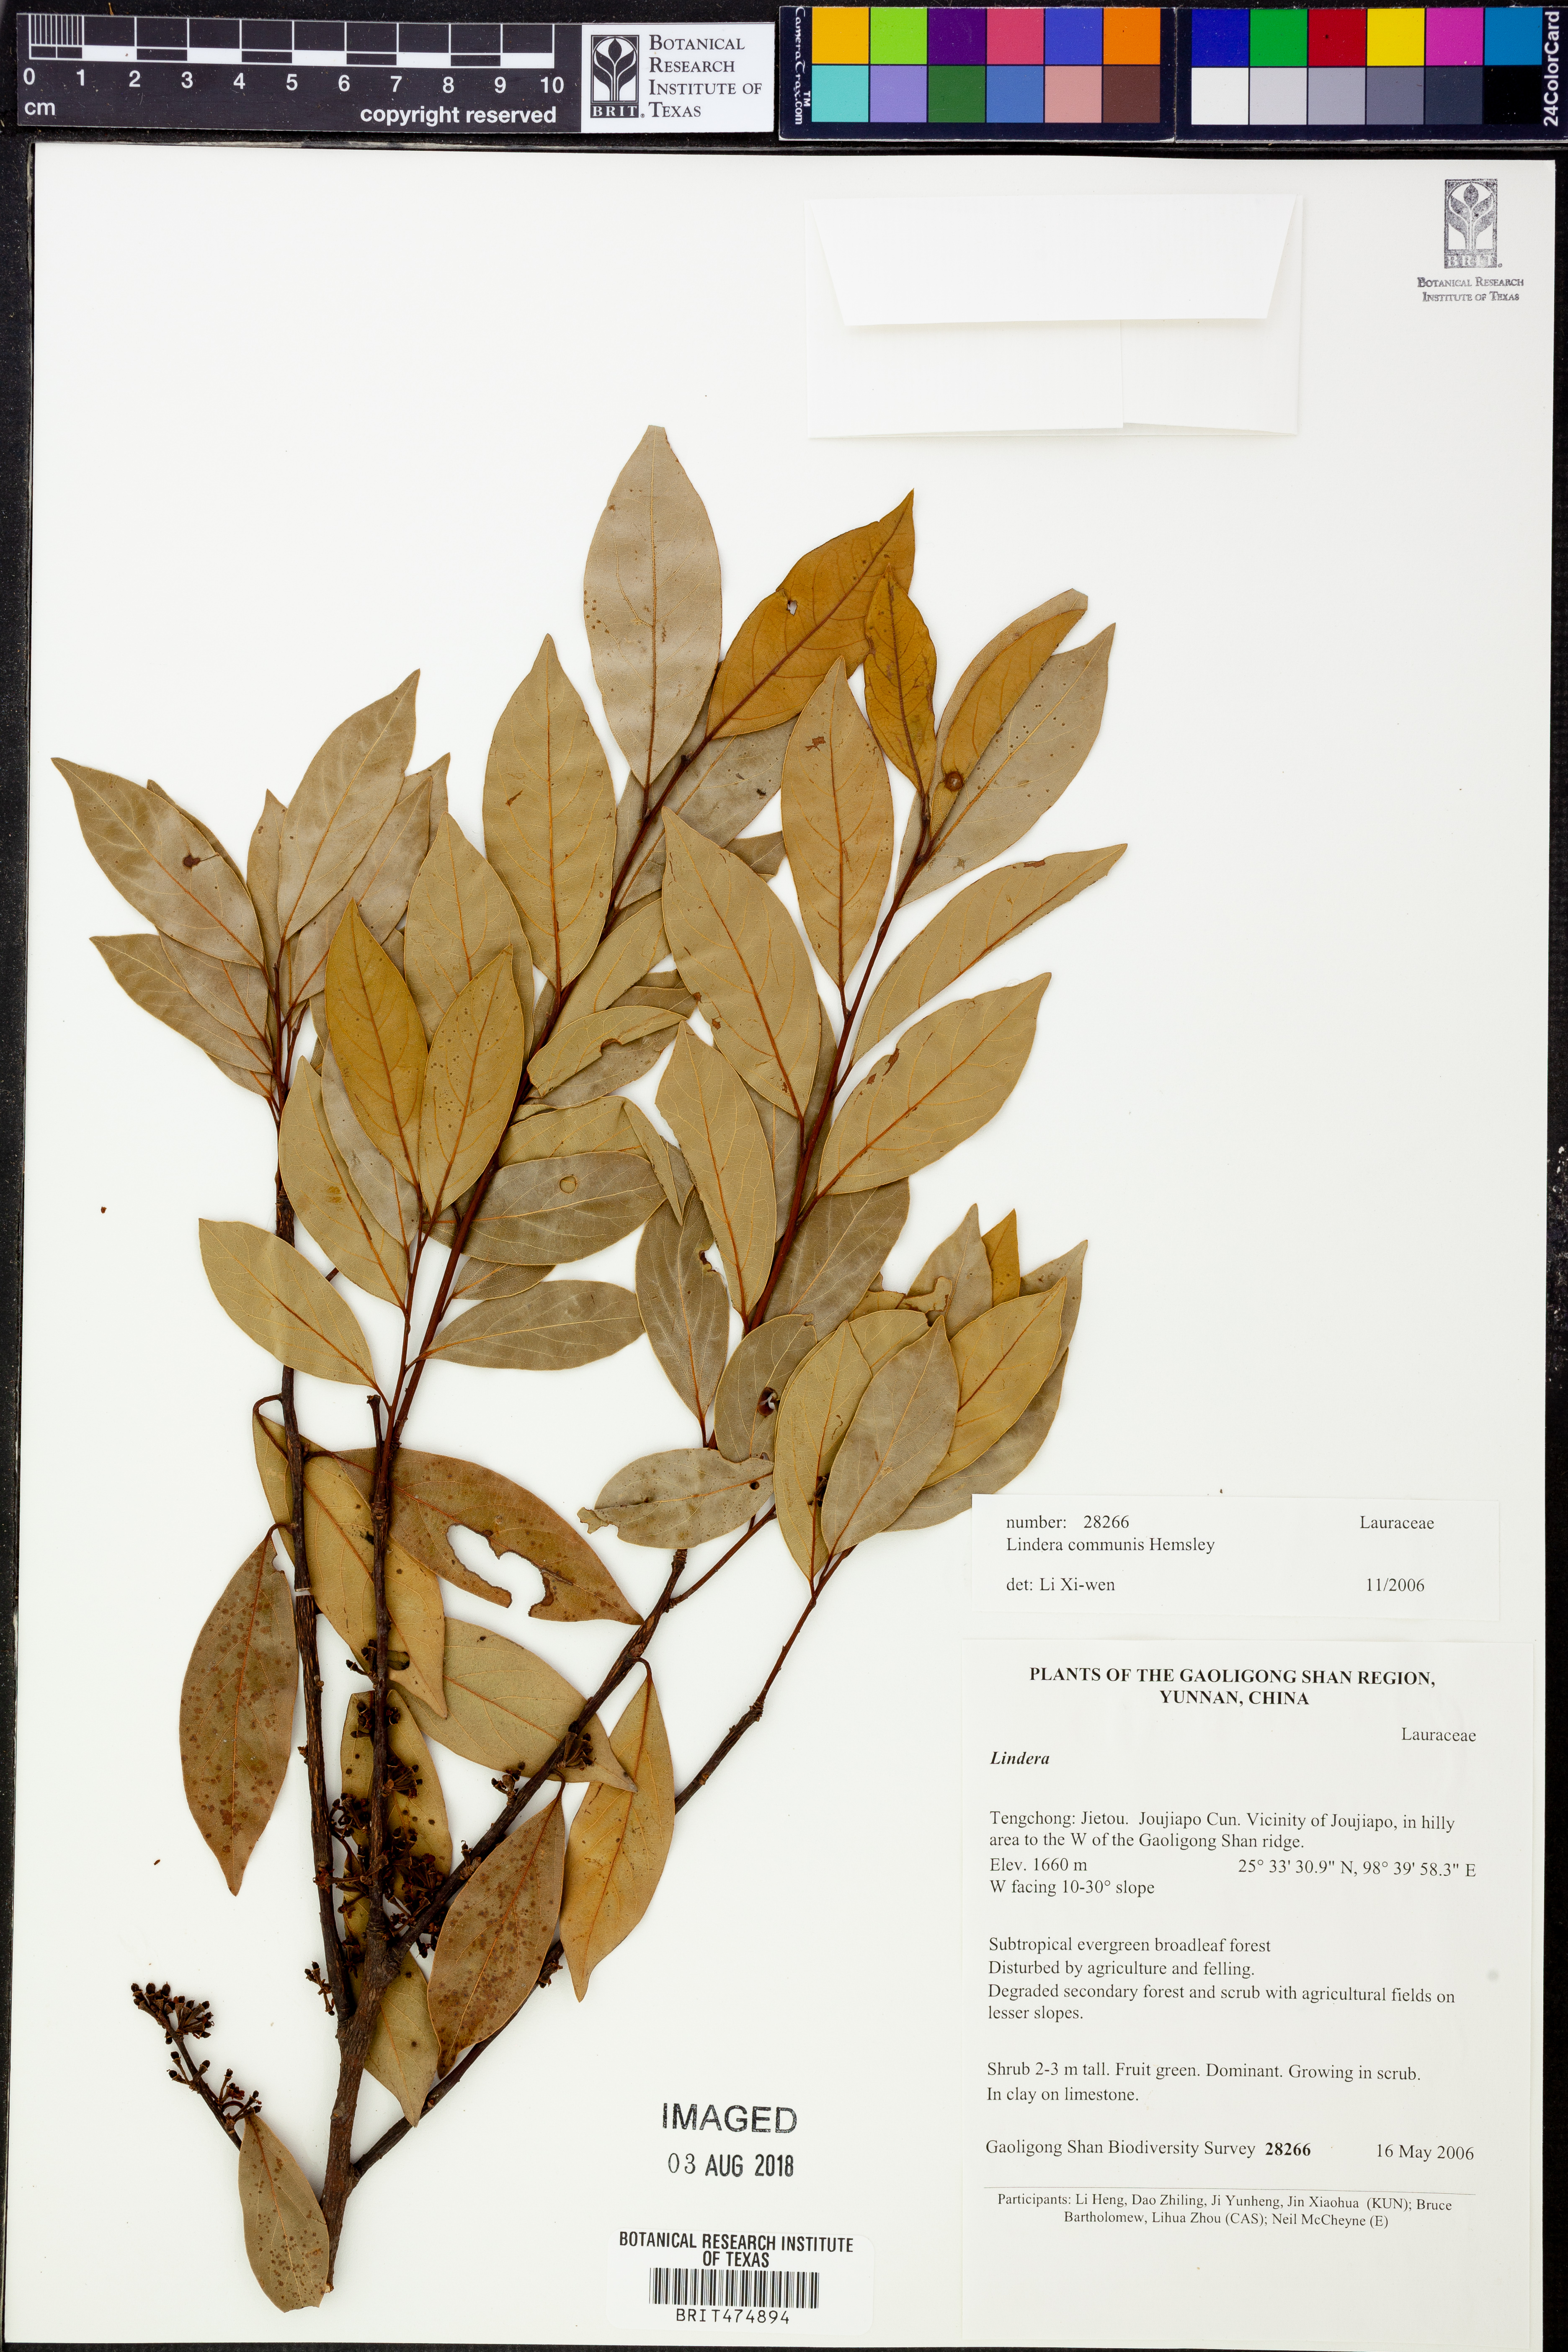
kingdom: Plantae
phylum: Tracheophyta
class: Magnoliopsida
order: Laurales
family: Lauraceae
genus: Lindera
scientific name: Lindera communis
